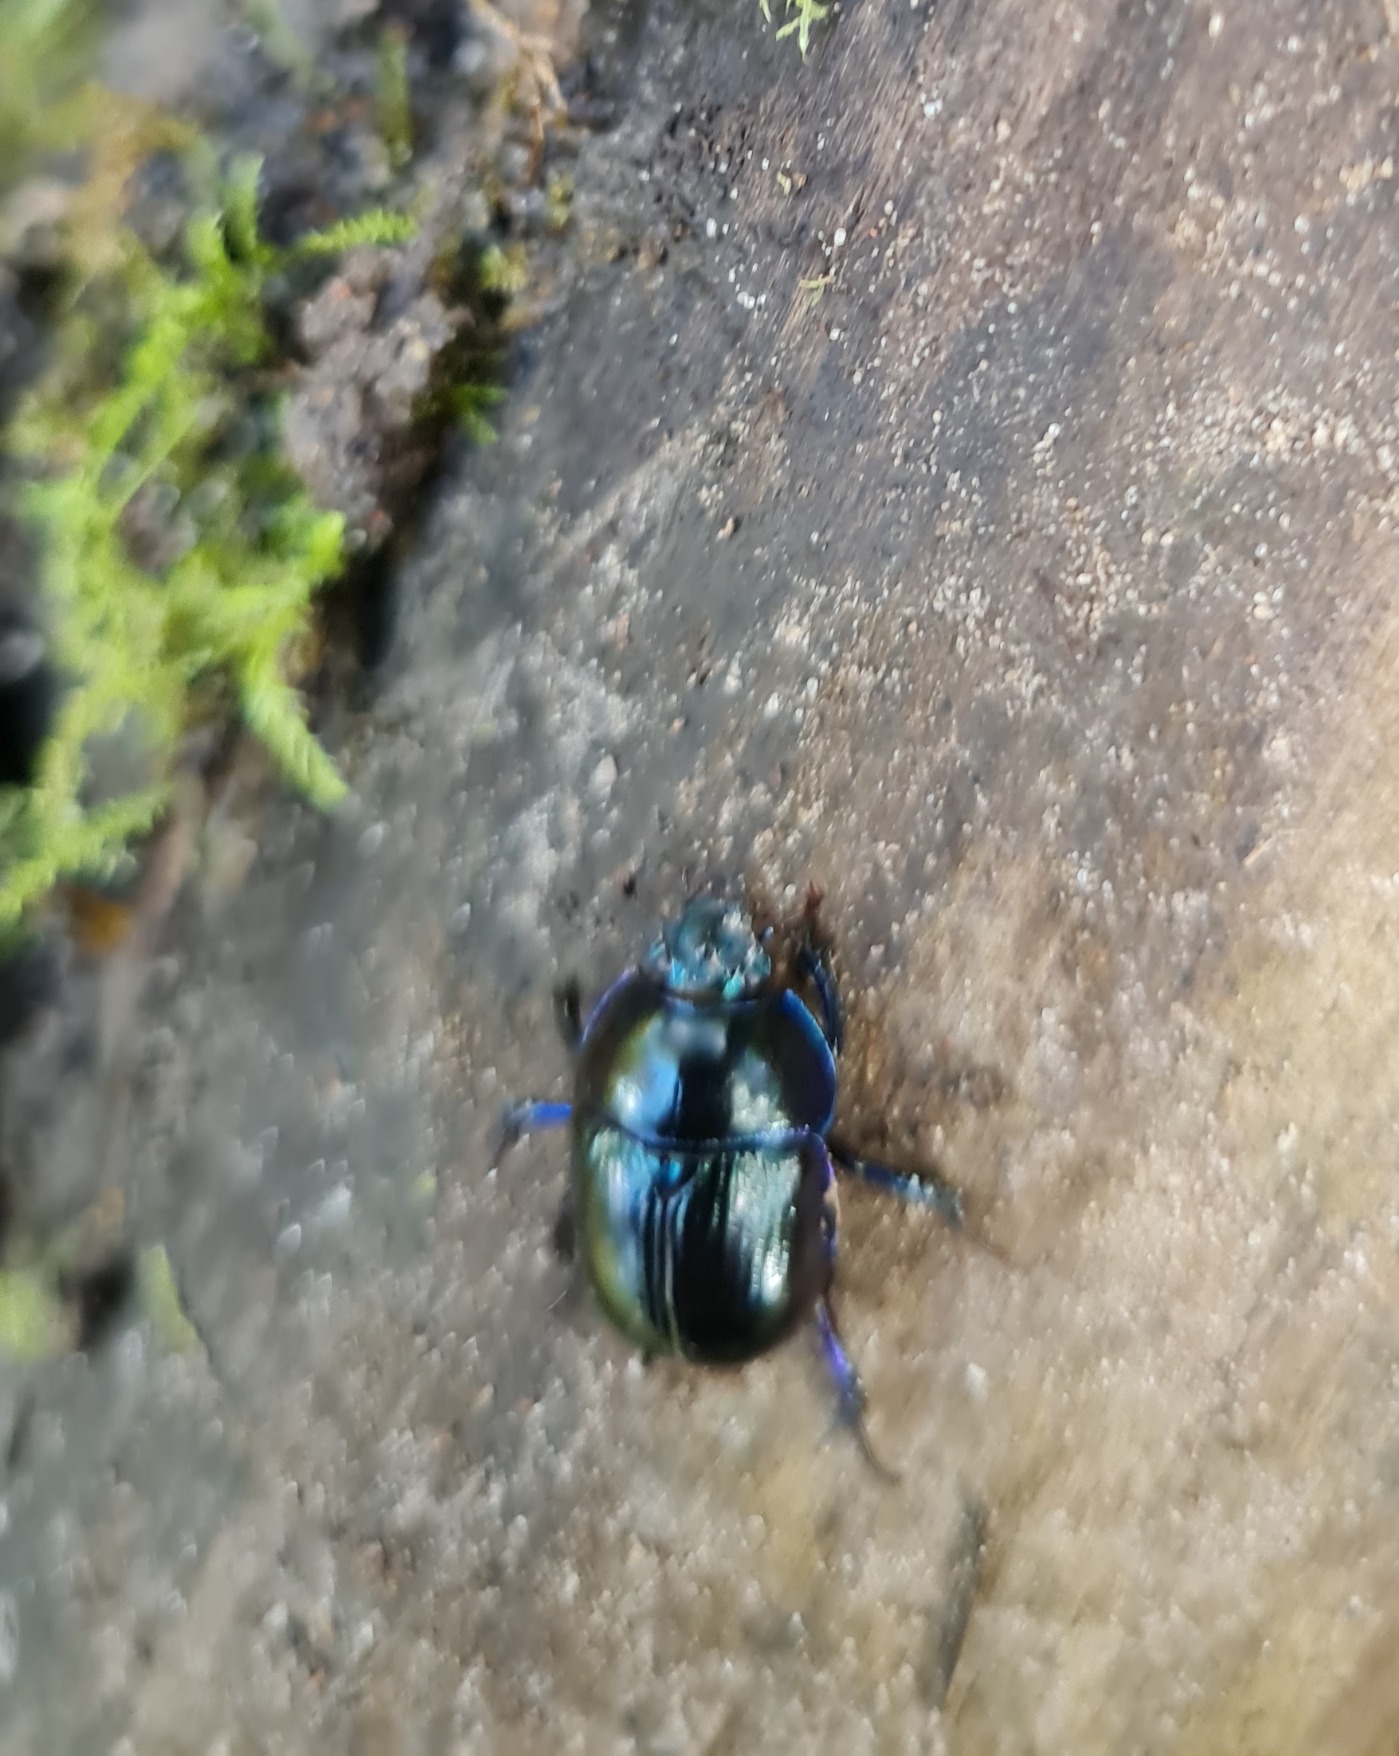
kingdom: Animalia
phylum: Arthropoda
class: Insecta
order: Coleoptera
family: Geotrupidae
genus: Anoplotrupes
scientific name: Anoplotrupes stercorosus
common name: Skovskarnbasse
